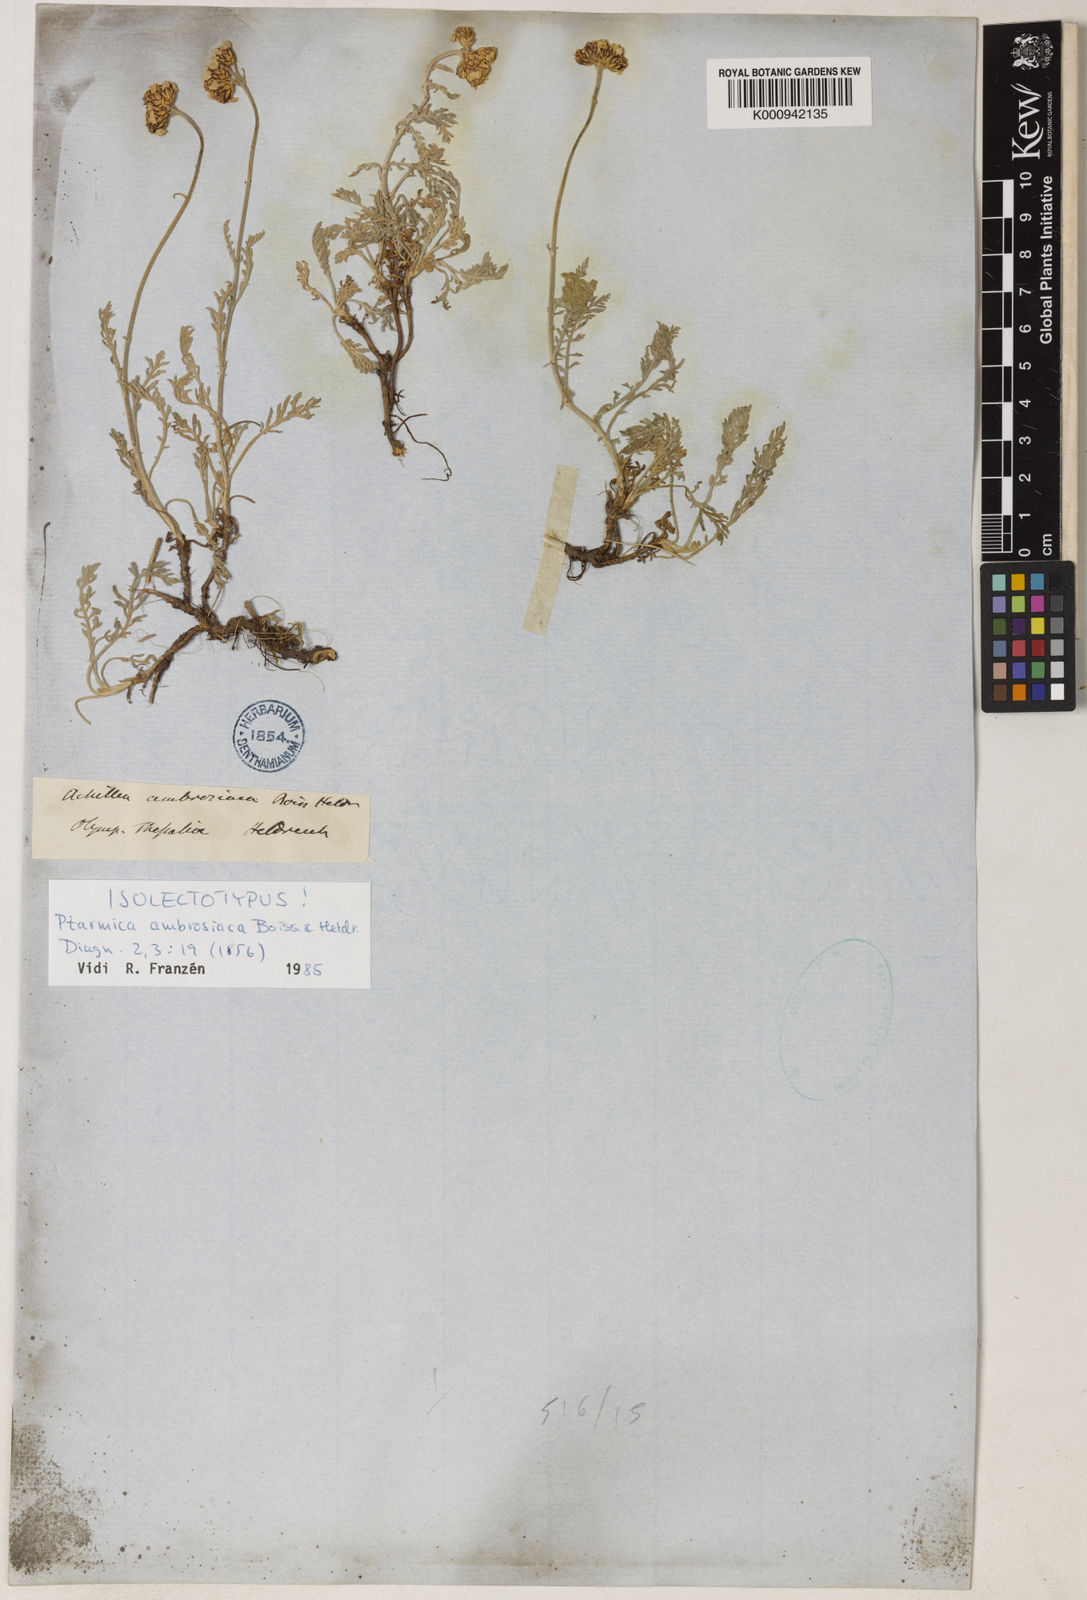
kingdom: Plantae
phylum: Tracheophyta
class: Magnoliopsida
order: Asterales
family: Asteraceae
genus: Achillea
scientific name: Achillea ambrosiaca
